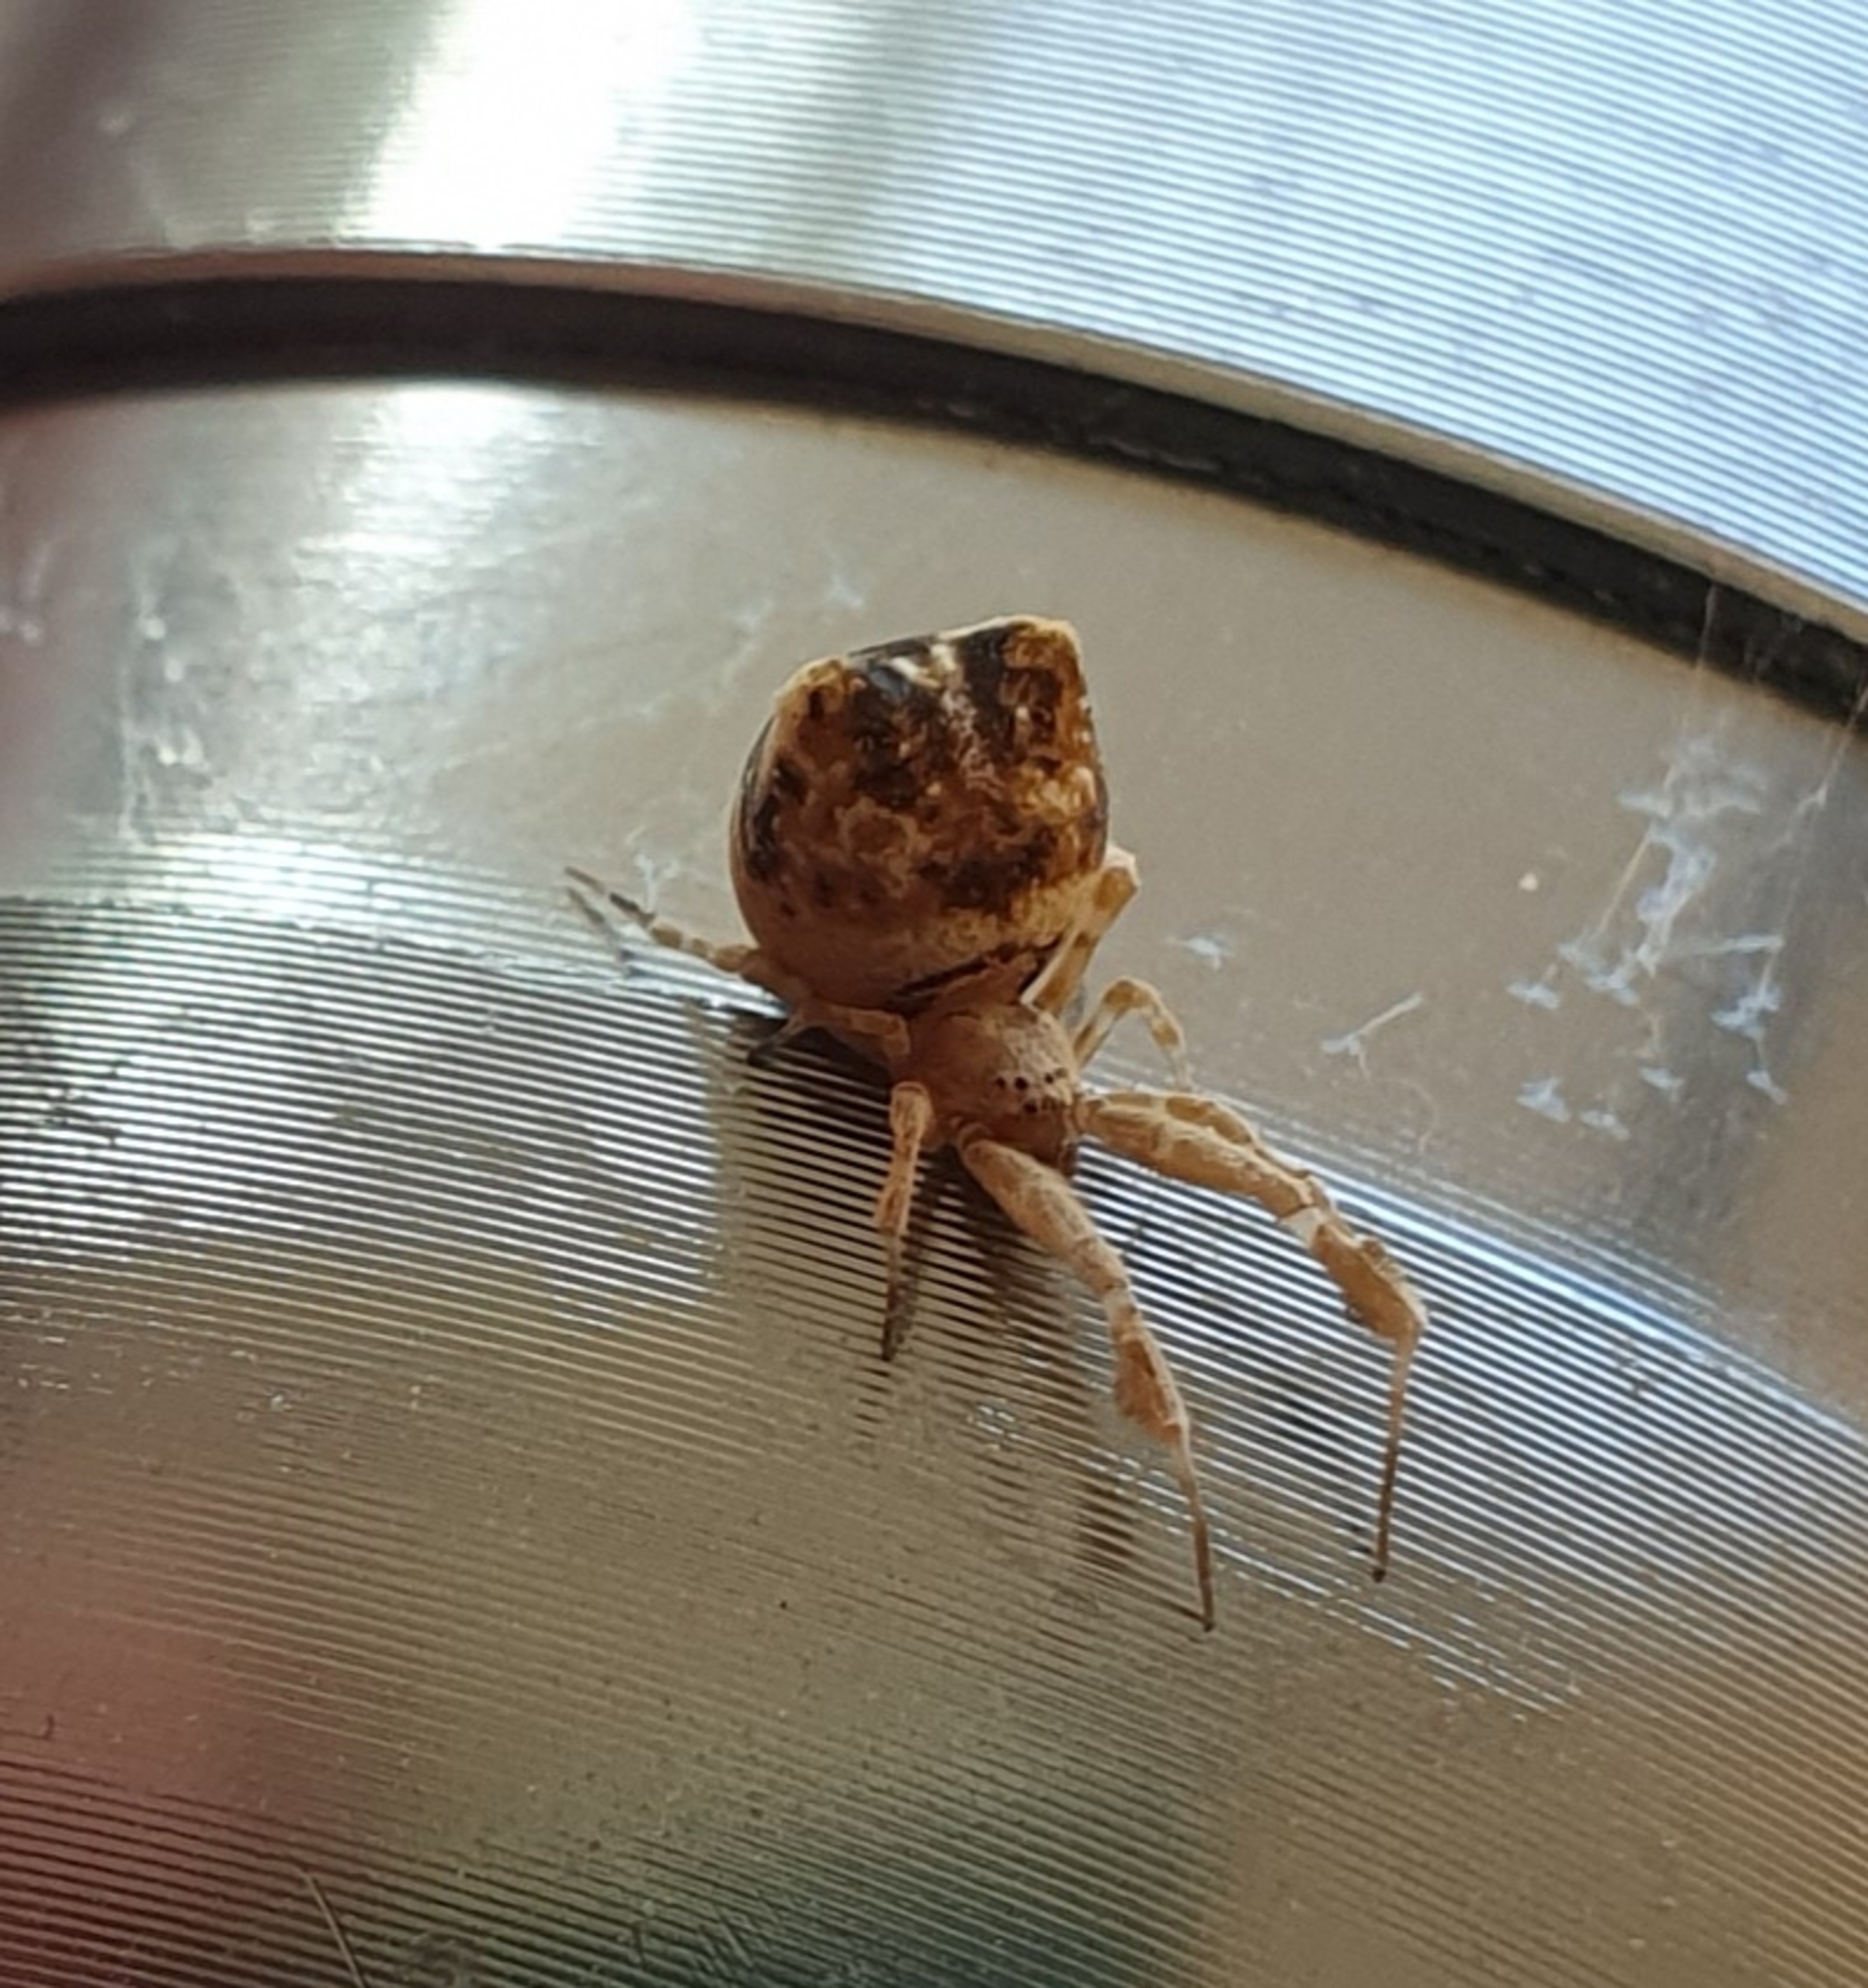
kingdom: Animalia
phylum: Arthropoda
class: Arachnida
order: Araneae
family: Uloboridae
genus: Uloborus
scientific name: Uloborus plumipes
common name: Fjerbenet edderkop
